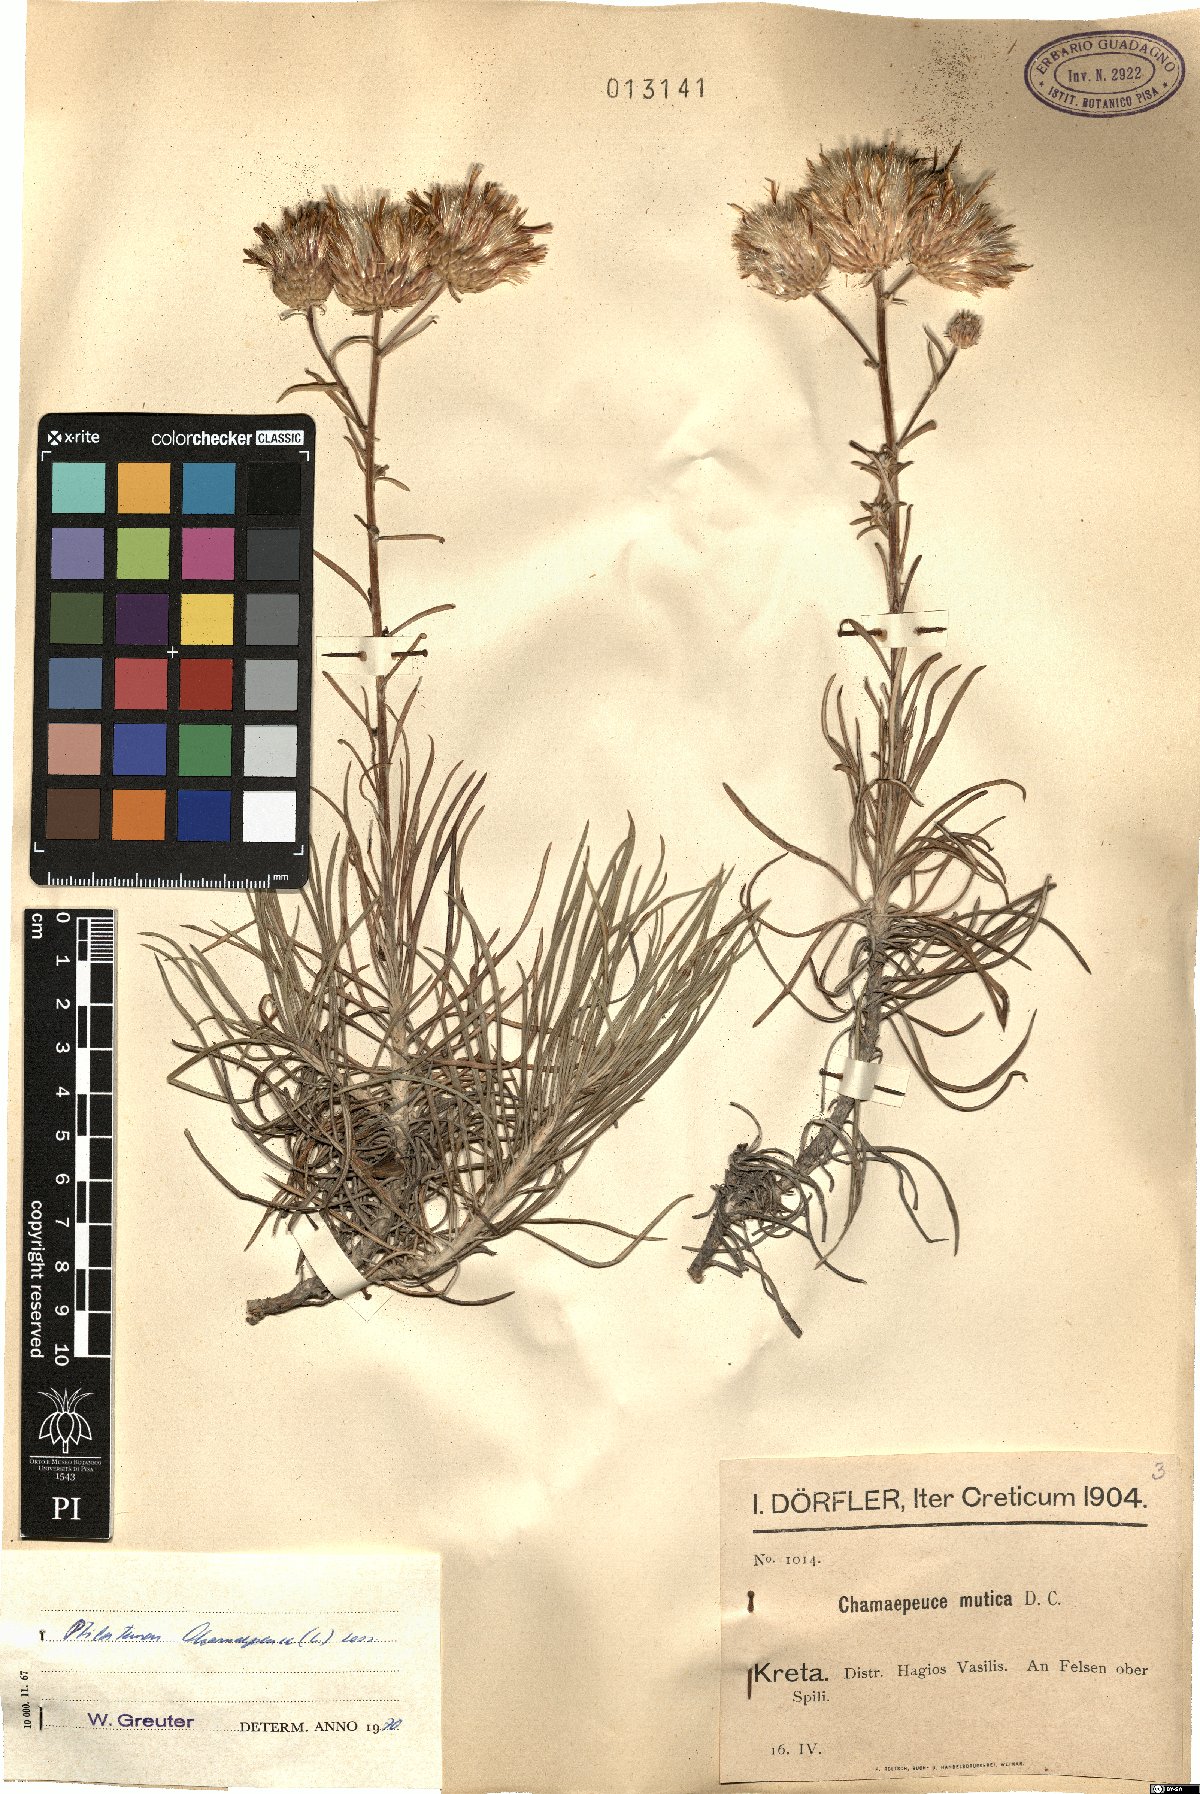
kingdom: Plantae
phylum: Tracheophyta
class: Magnoliopsida
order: Asterales
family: Asteraceae
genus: Ptilostemon
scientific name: Ptilostemon chamaepeuce
